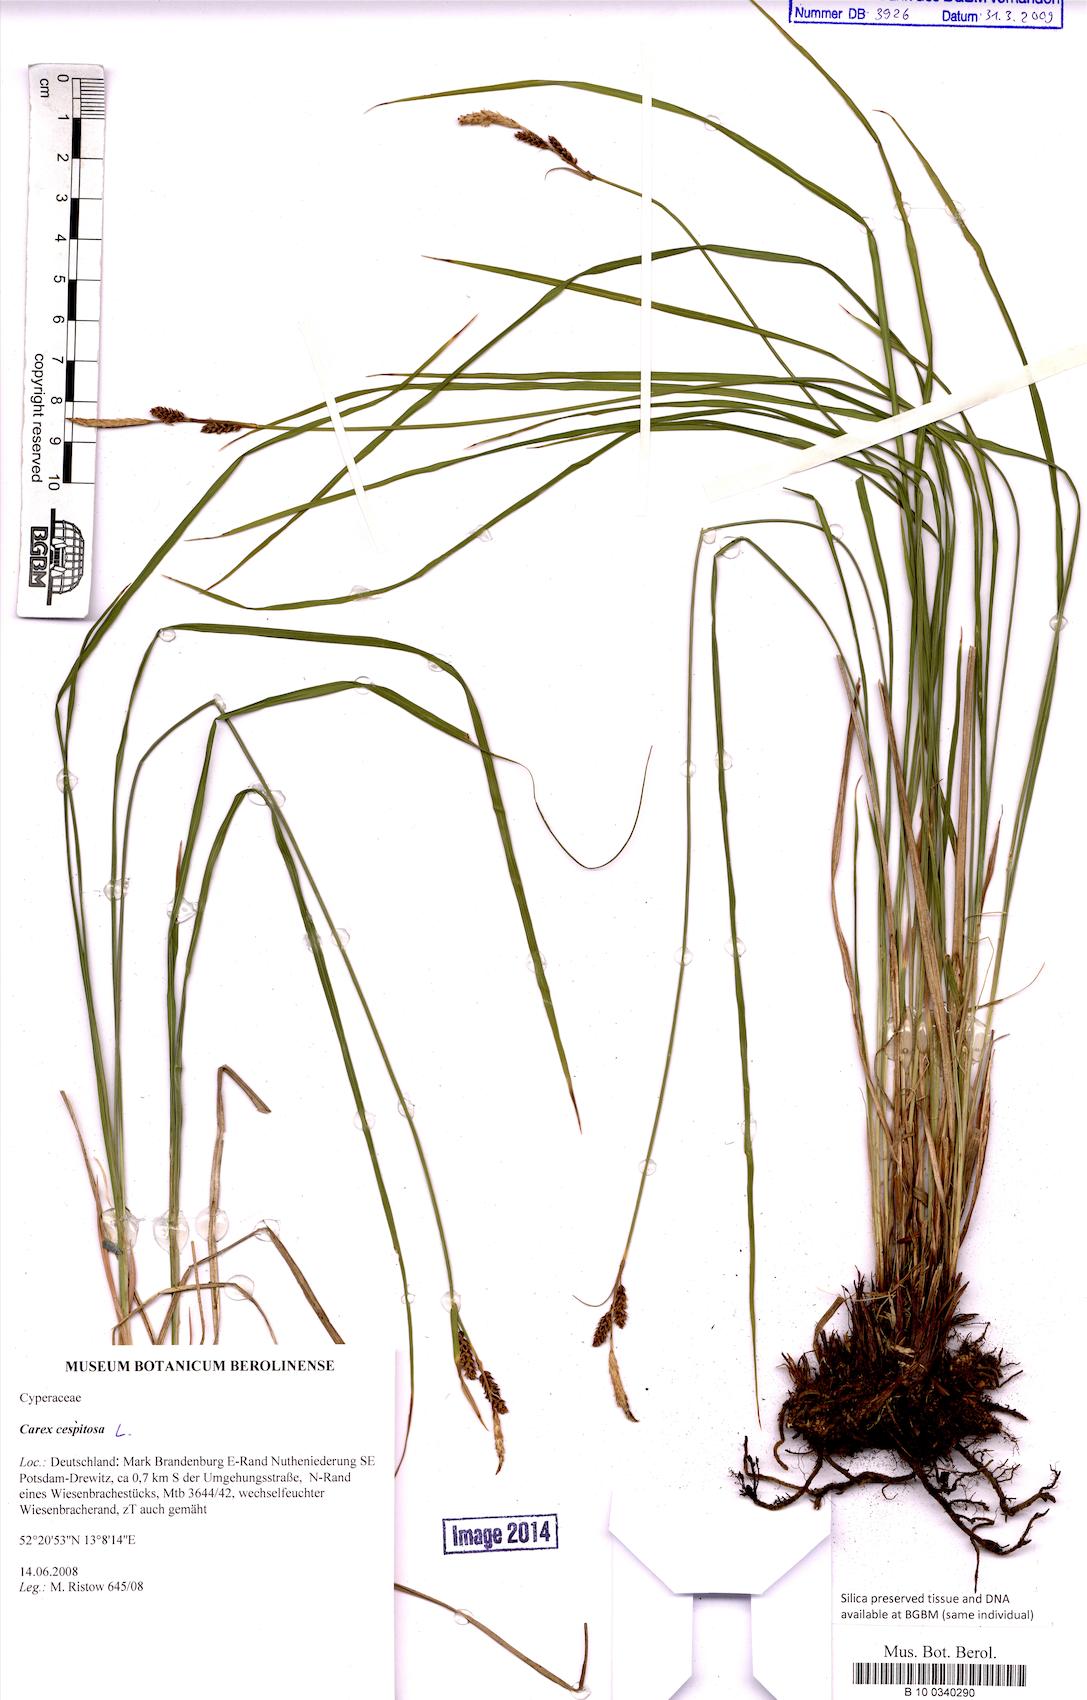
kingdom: Plantae
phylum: Tracheophyta
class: Liliopsida
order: Poales
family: Cyperaceae
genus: Carex
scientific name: Carex cespitosa
